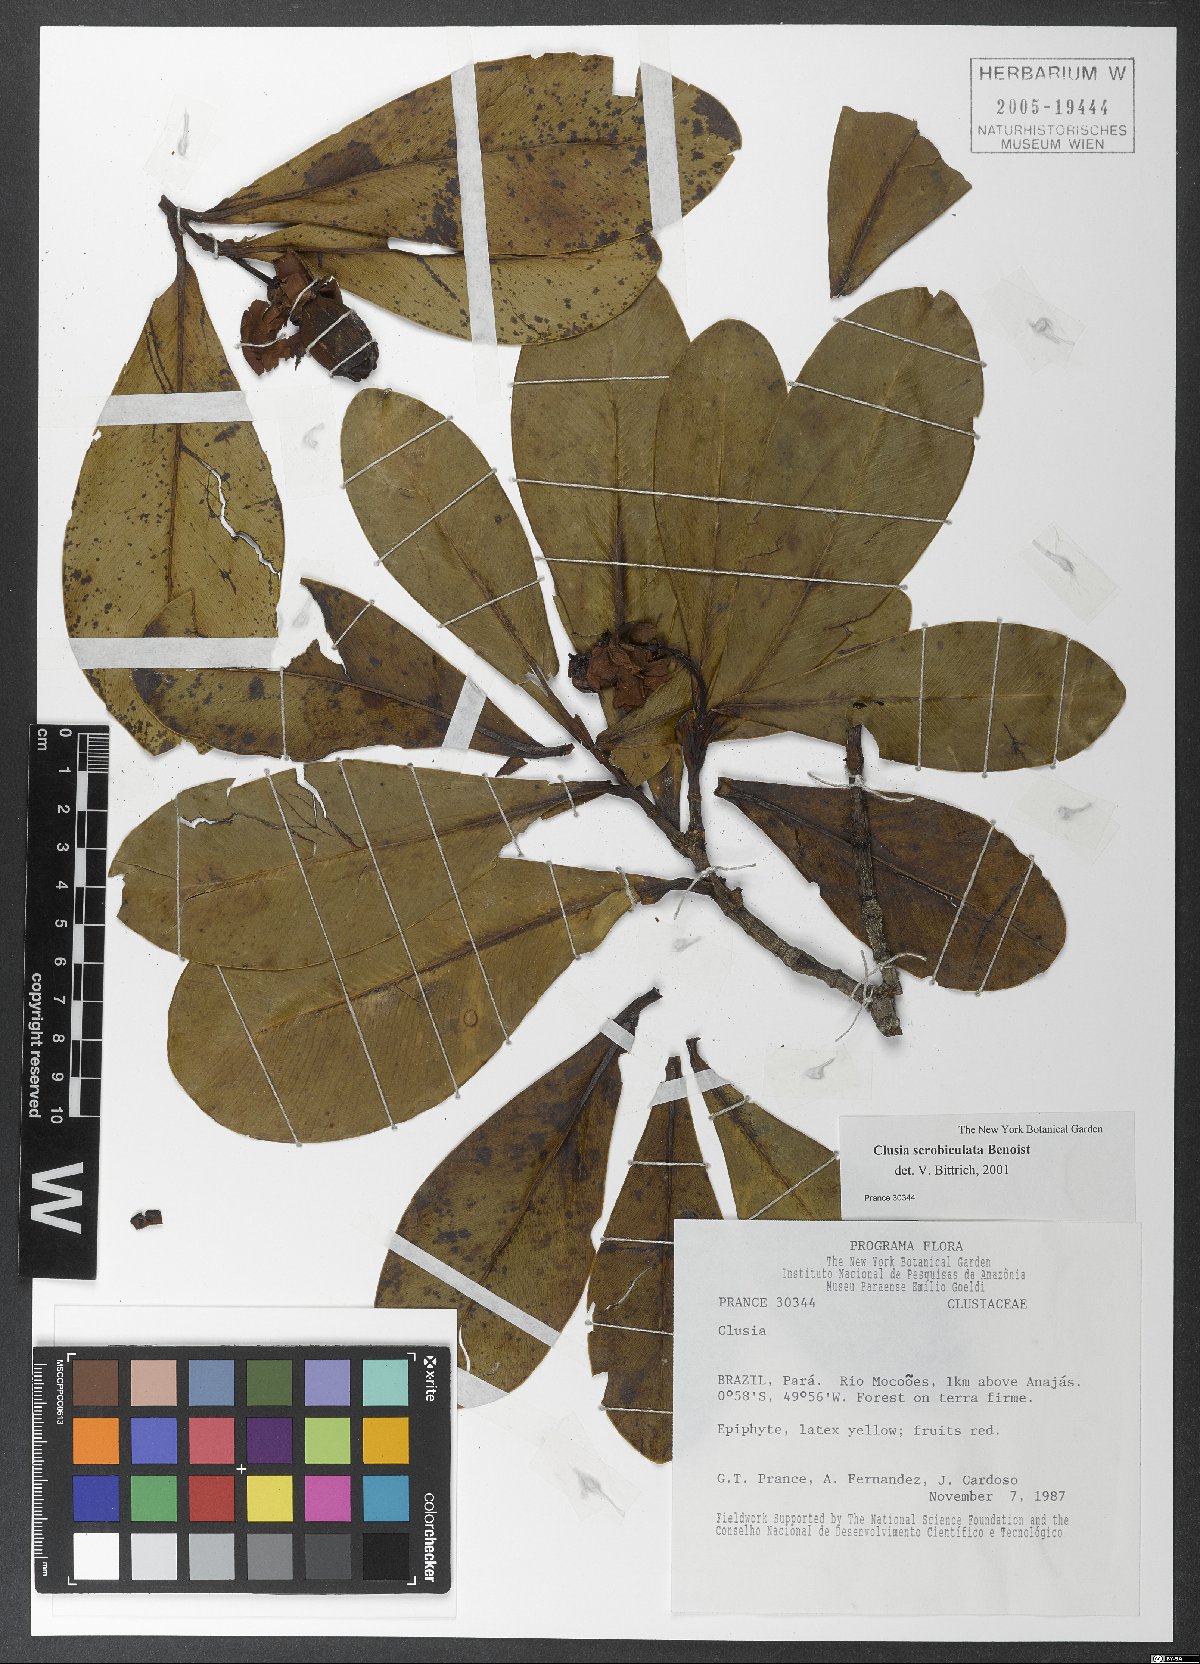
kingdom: Plantae
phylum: Tracheophyta
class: Magnoliopsida
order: Malpighiales
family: Clusiaceae
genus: Clusia
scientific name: Clusia scrobiculata
